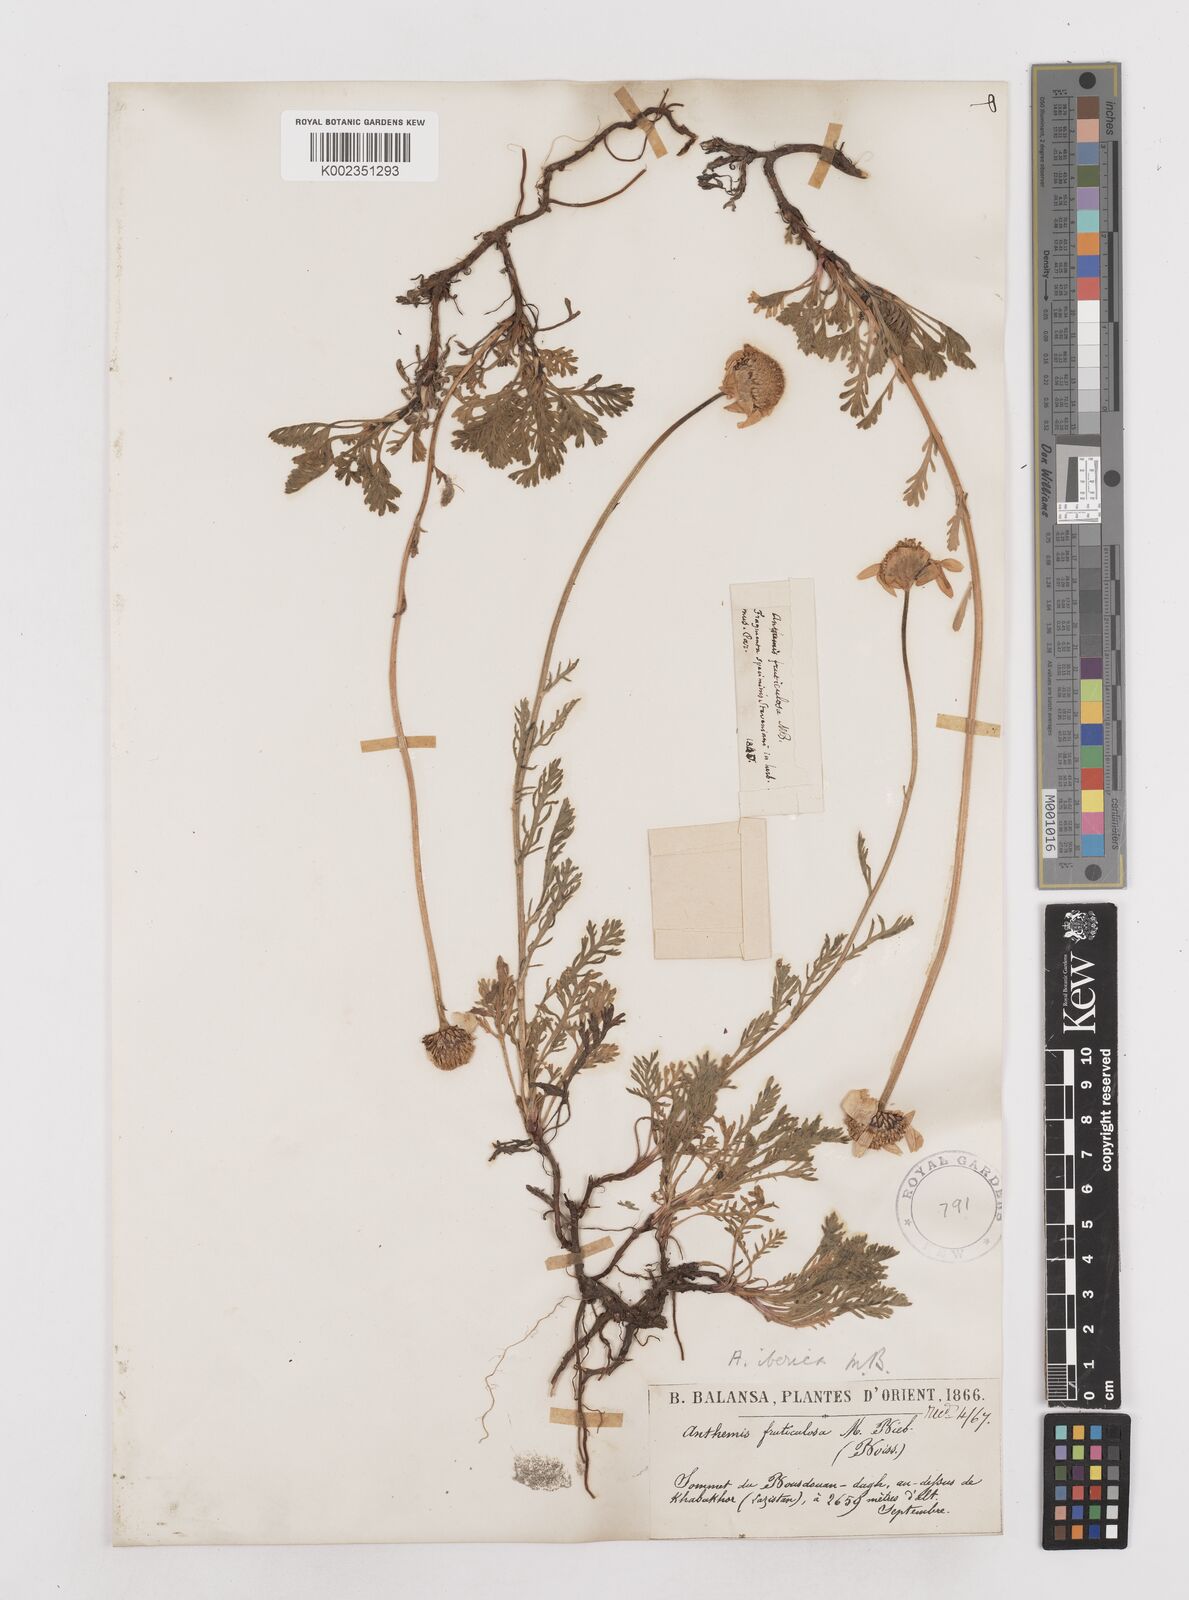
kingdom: Plantae
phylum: Tracheophyta
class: Magnoliopsida
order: Asterales
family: Asteraceae
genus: Anthemis
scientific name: Anthemis cretica
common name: Mountain dog-daisy
